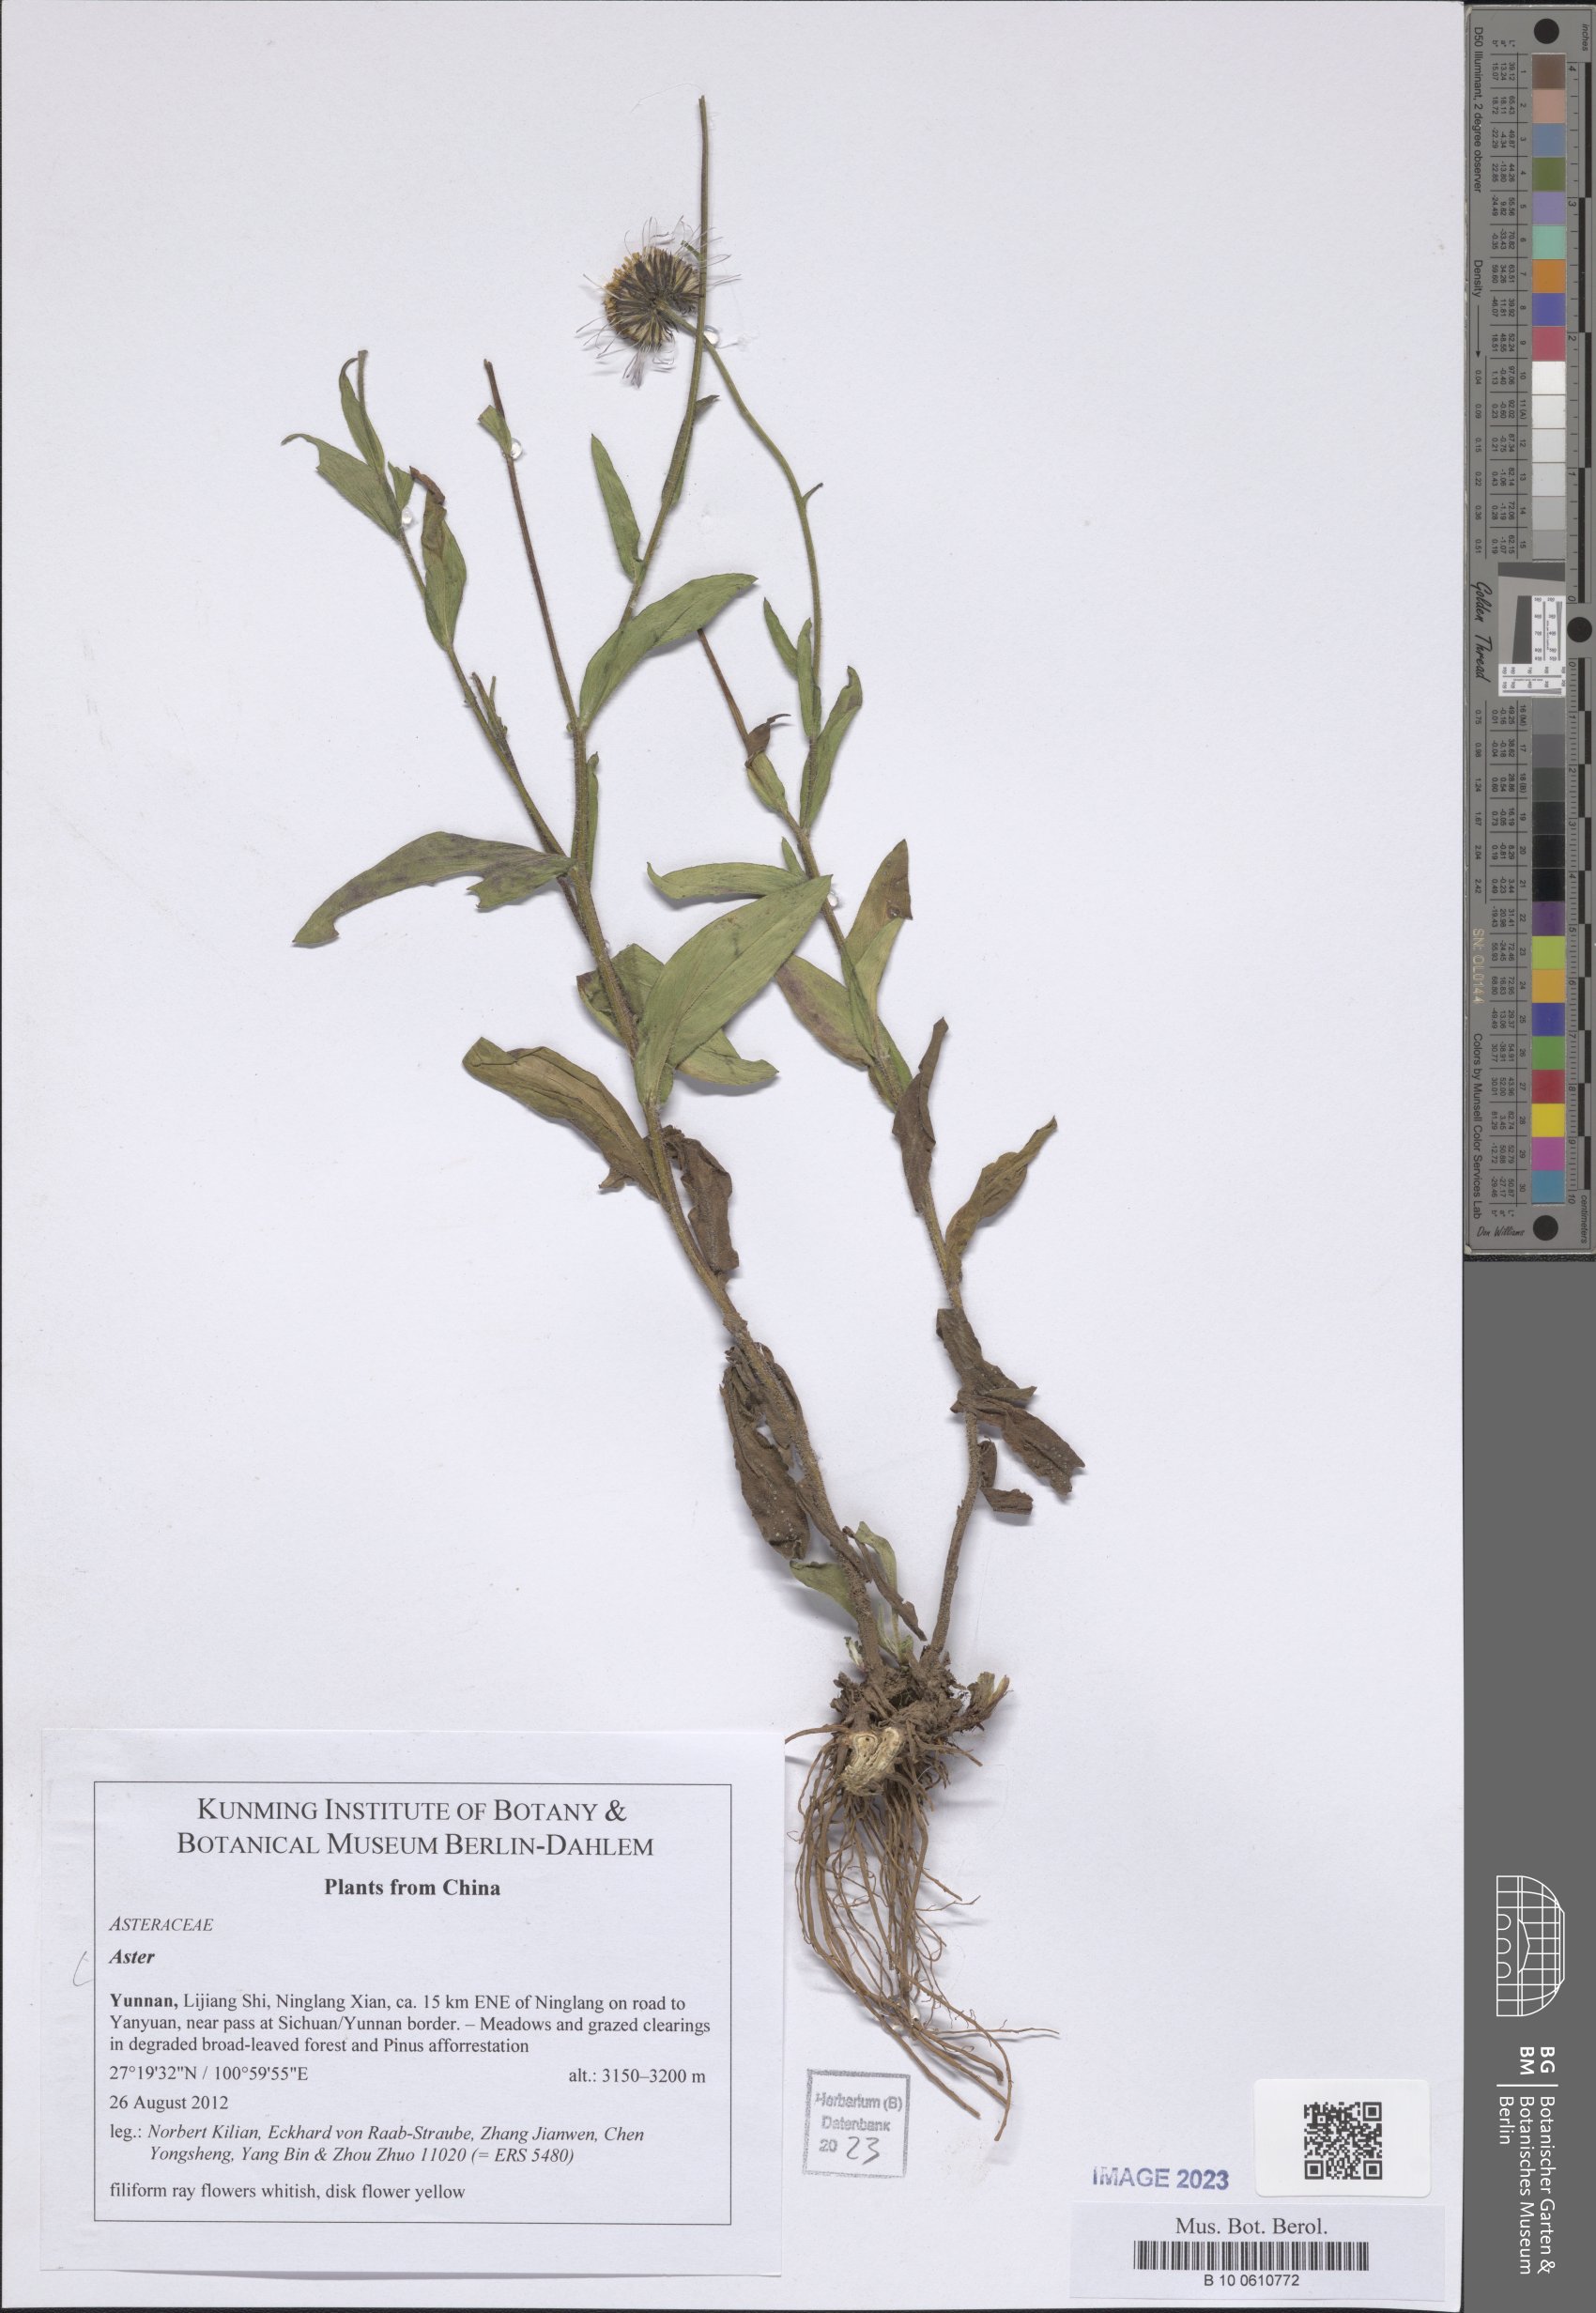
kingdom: Plantae
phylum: Tracheophyta
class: Magnoliopsida
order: Asterales
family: Asteraceae
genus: Aster
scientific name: Aster
